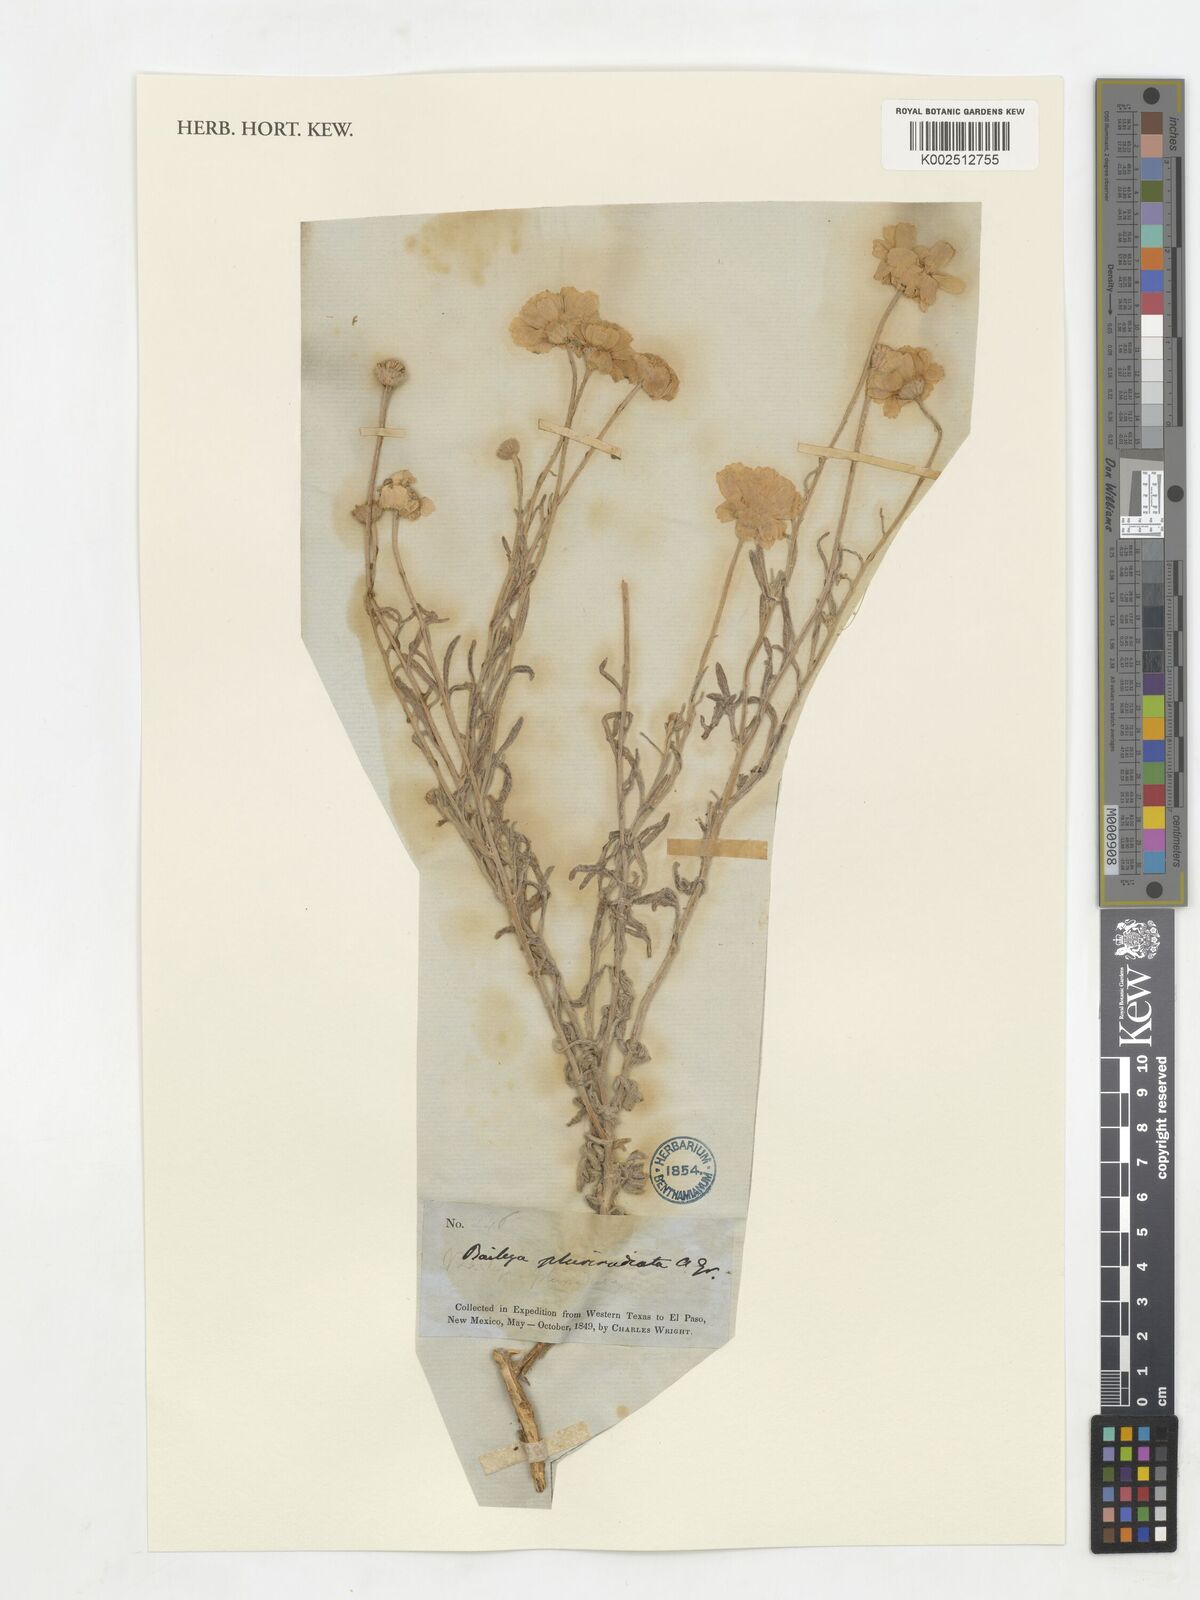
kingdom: Plantae
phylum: Tracheophyta
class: Magnoliopsida
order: Asterales
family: Asteraceae
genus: Baileya
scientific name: Baileya pleniradiata
